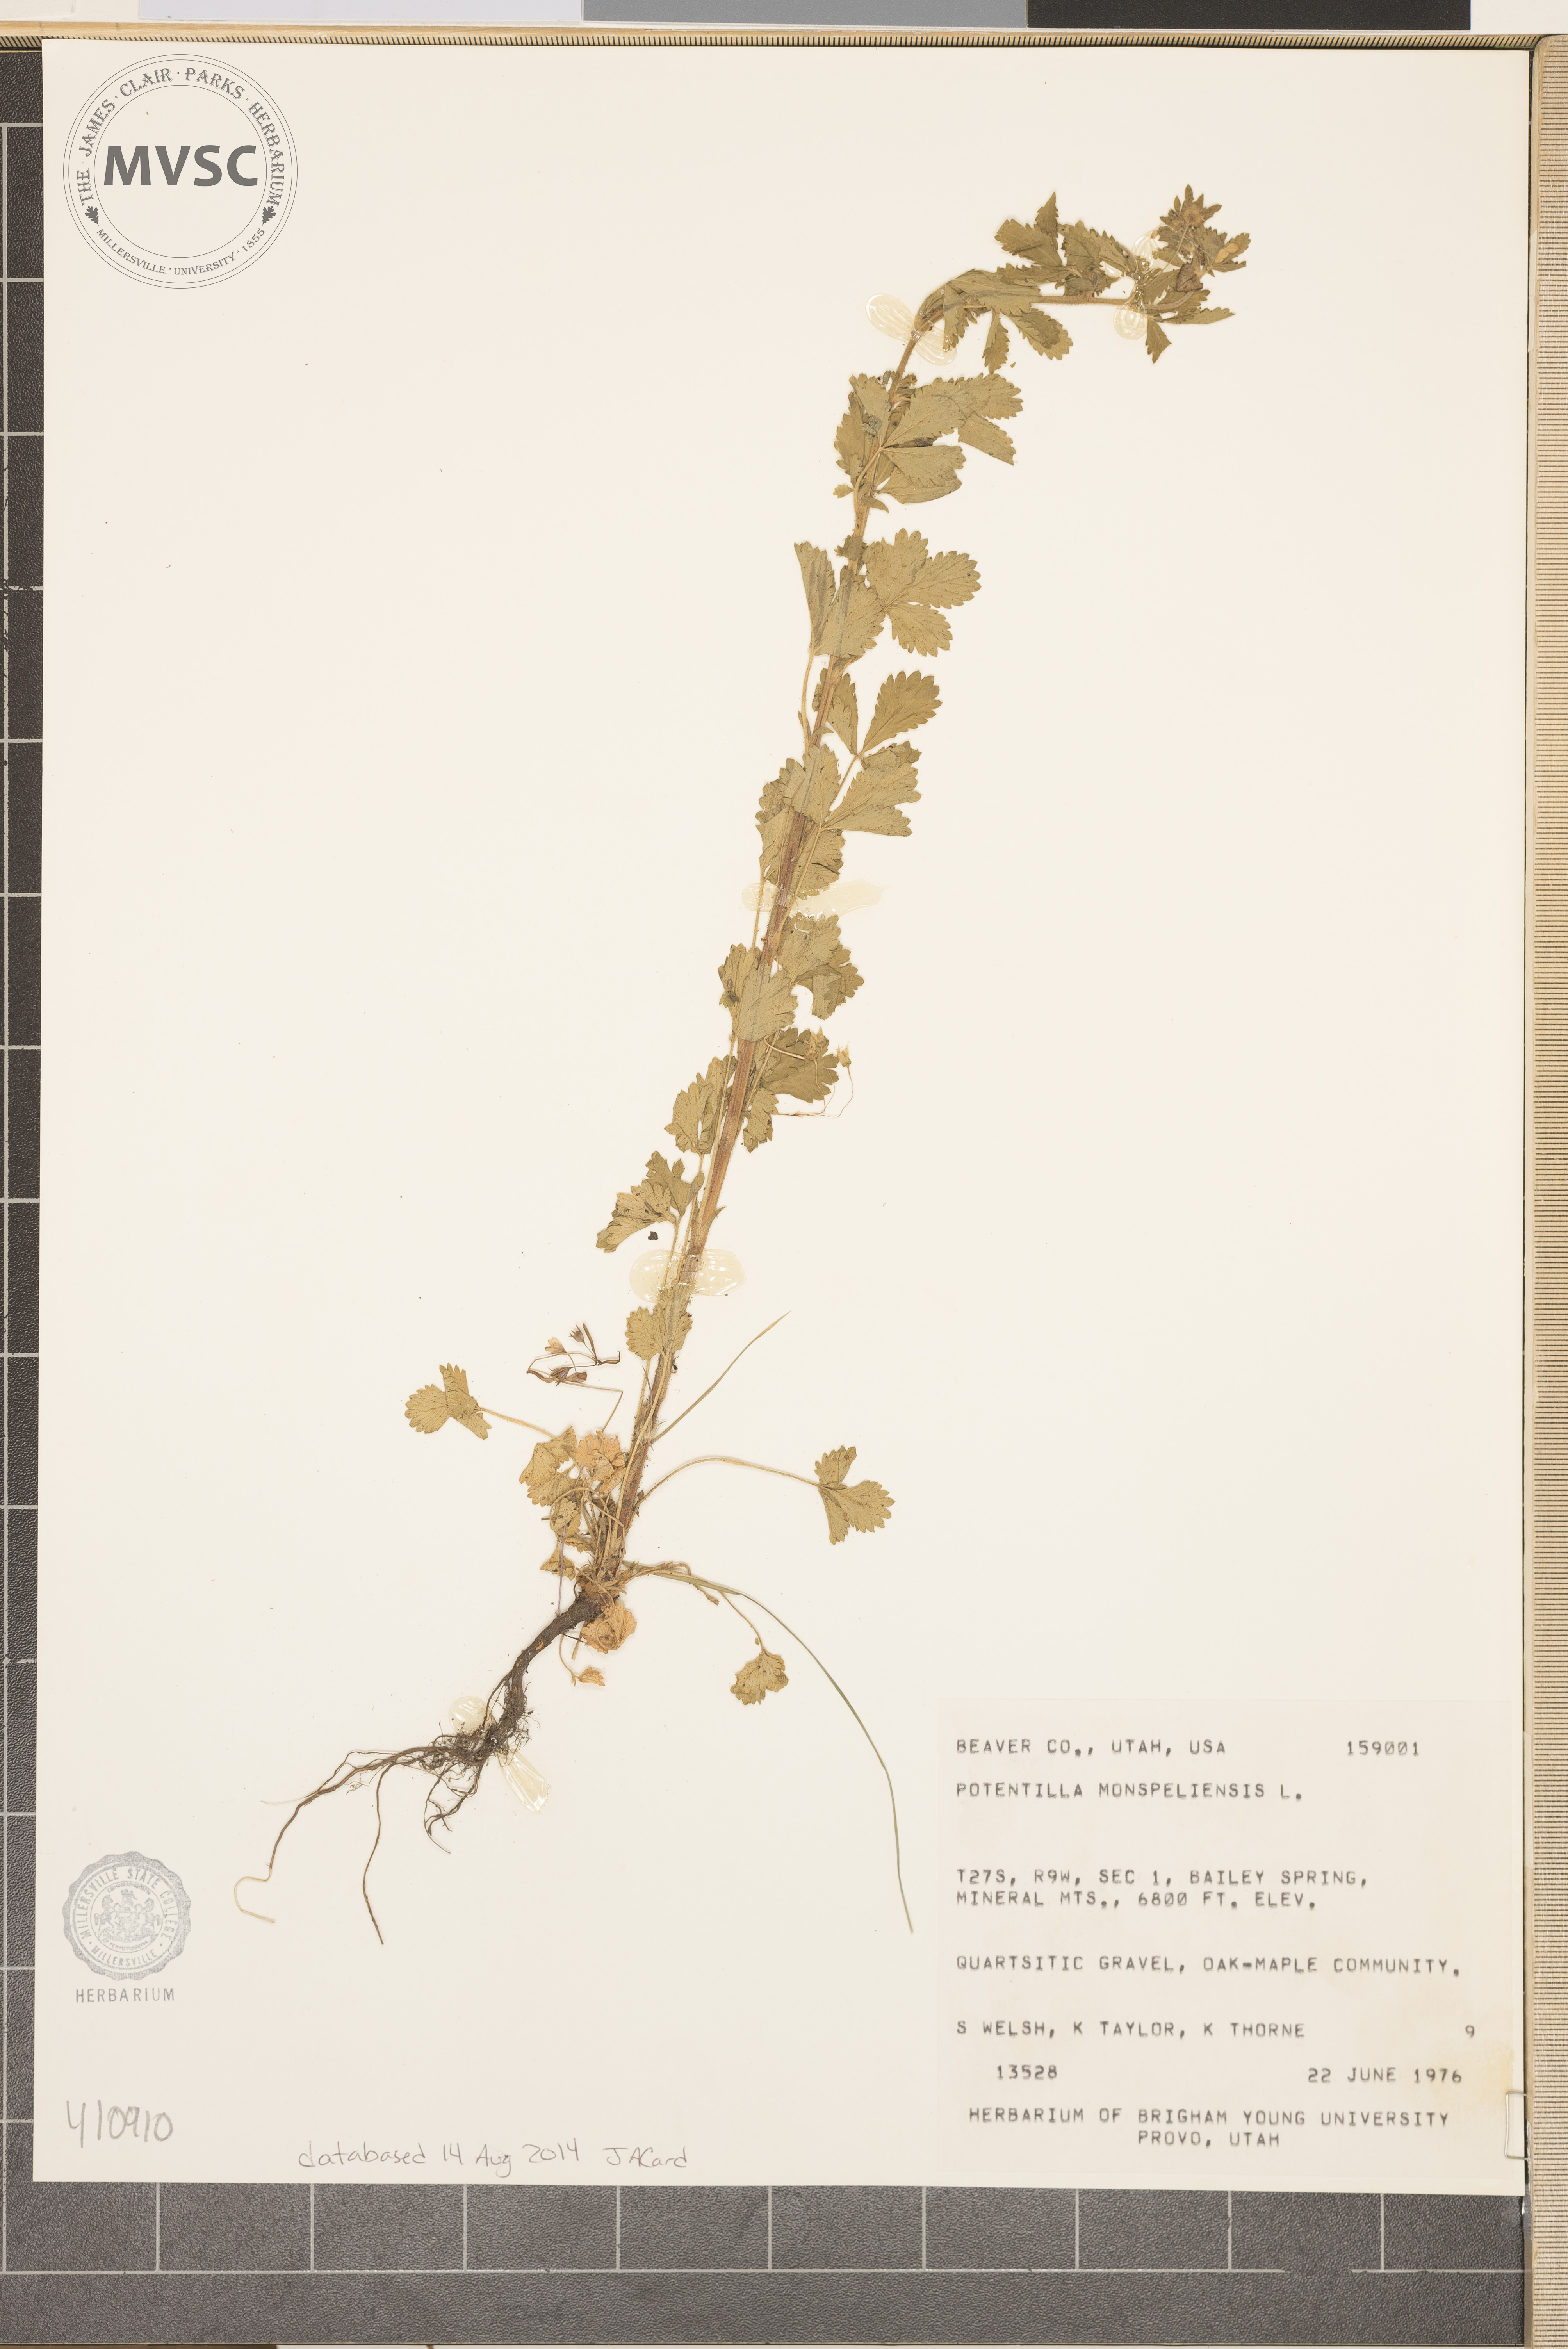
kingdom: Plantae
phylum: Tracheophyta
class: Magnoliopsida
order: Rosales
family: Rosaceae
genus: Potentilla
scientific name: Potentilla norvegica
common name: Ternate-leaved cinquefoil
